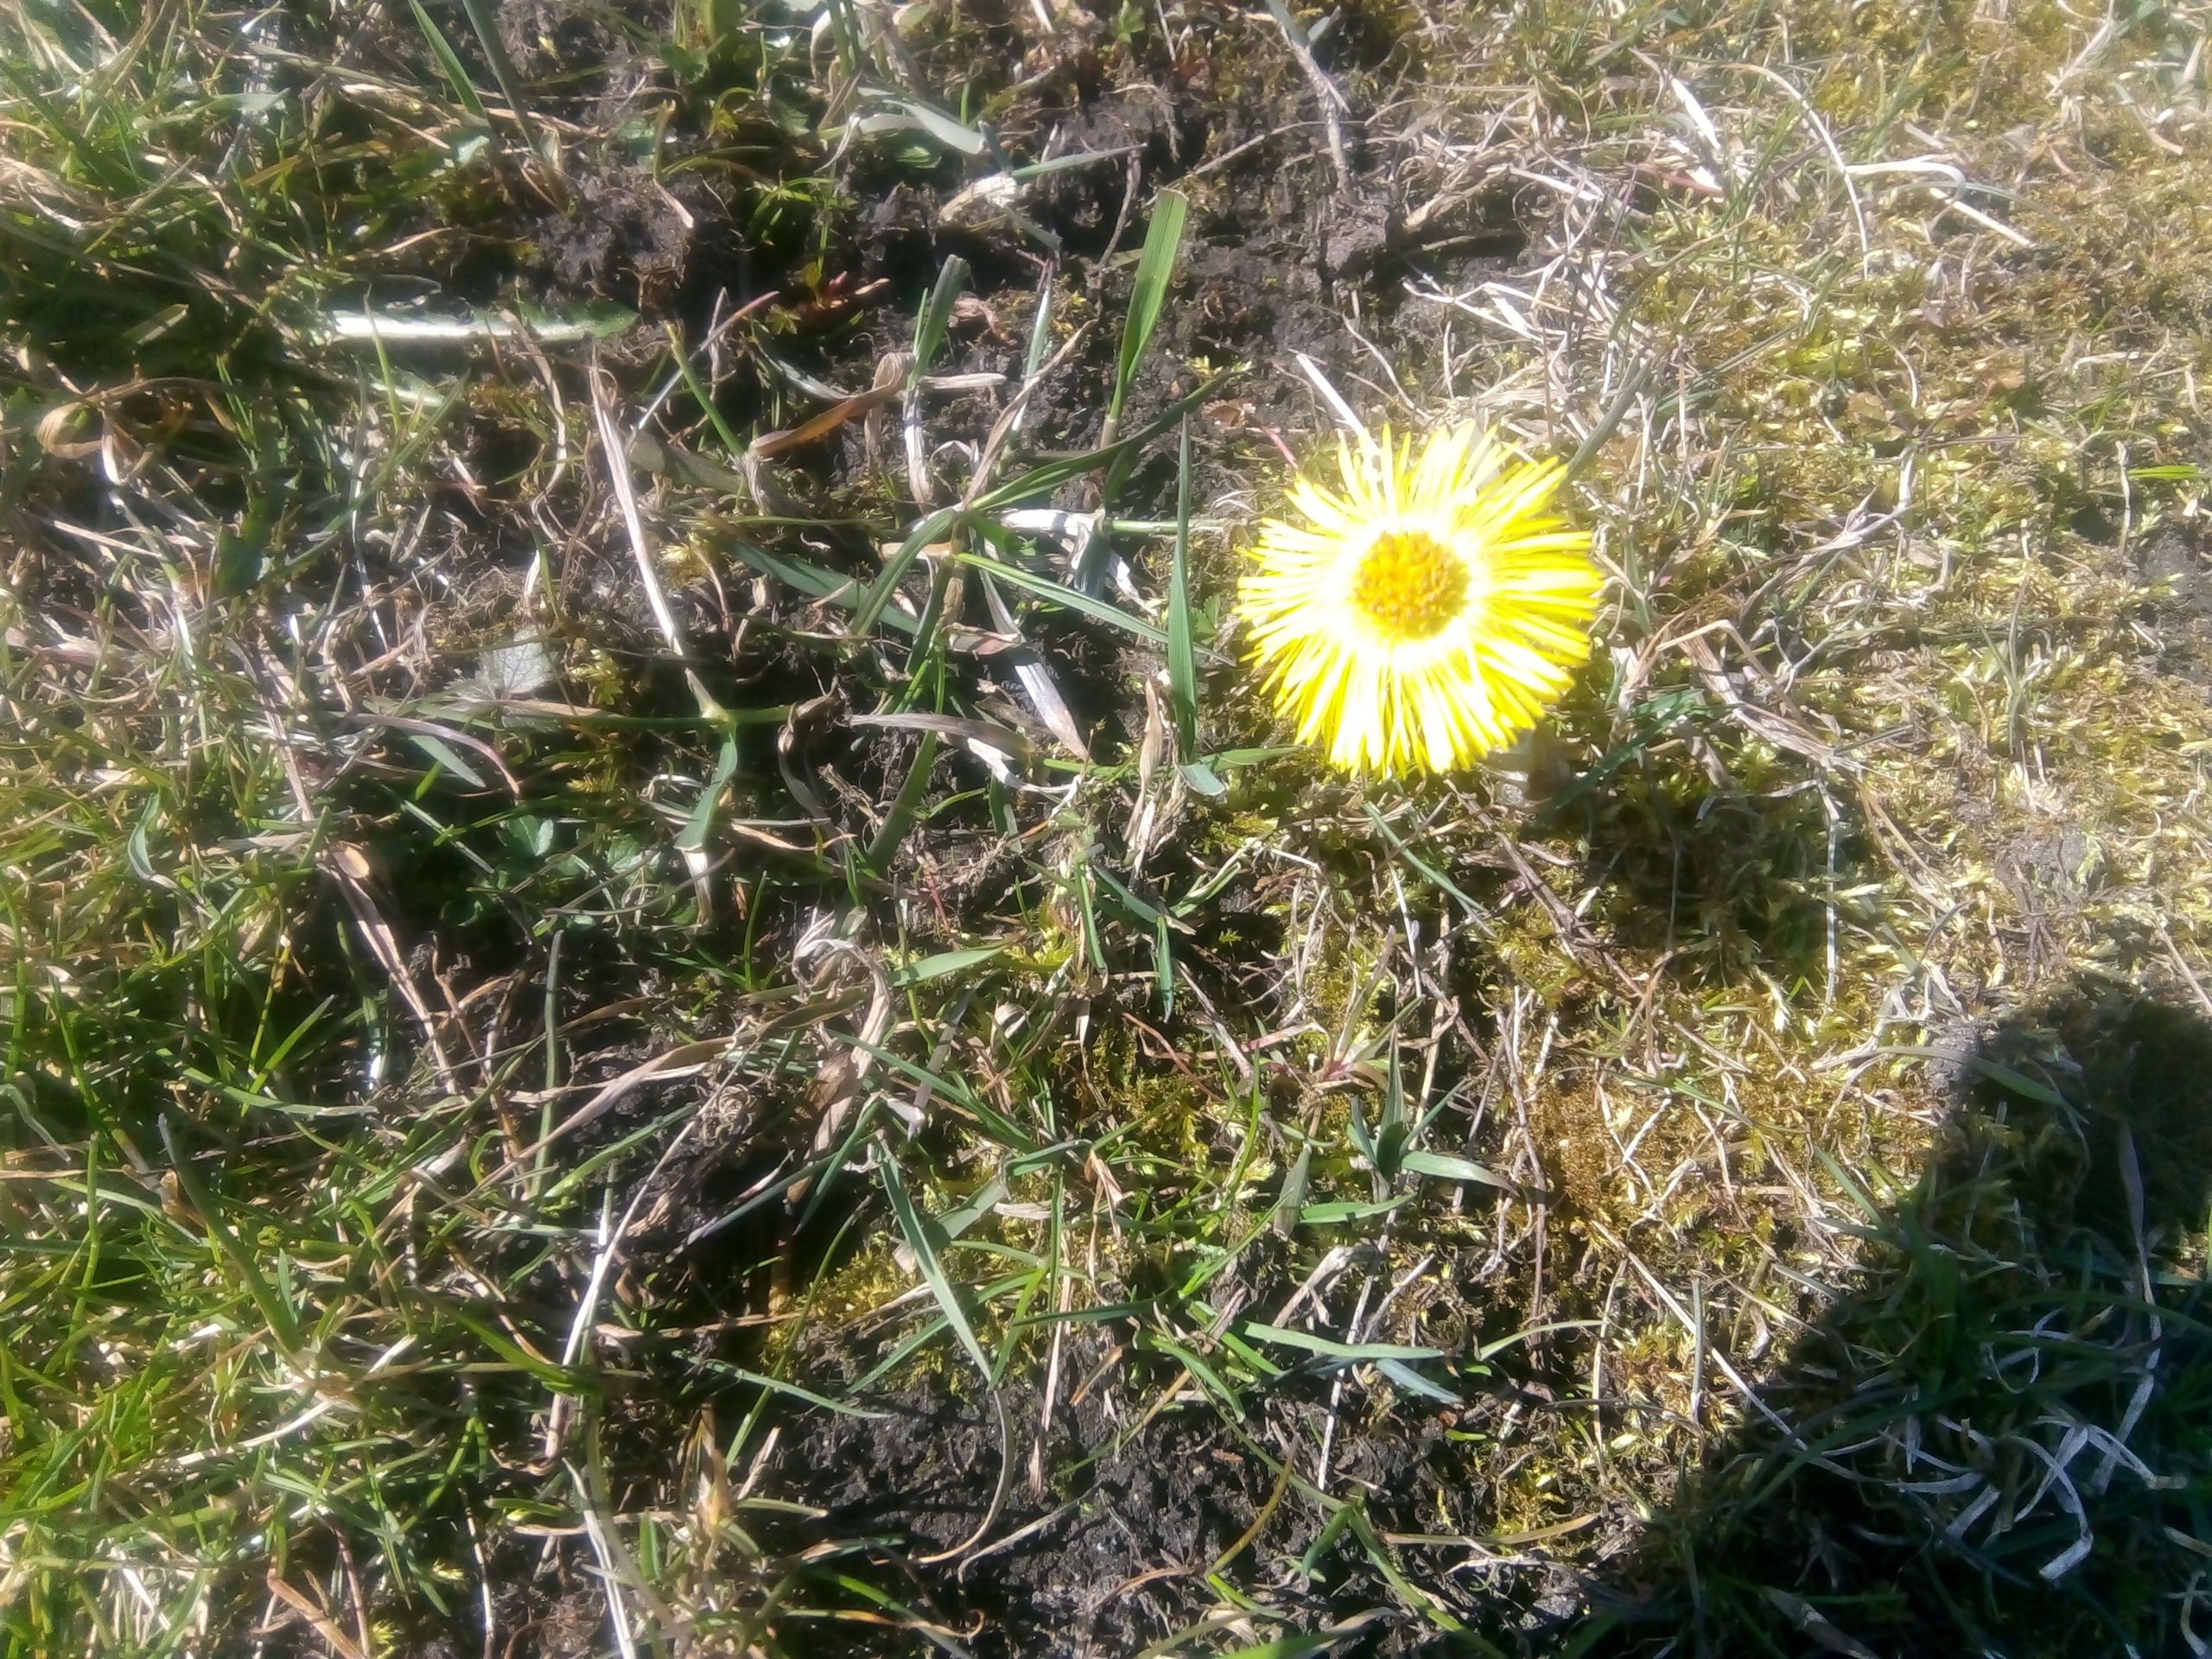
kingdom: Plantae
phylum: Tracheophyta
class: Magnoliopsida
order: Asterales
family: Asteraceae
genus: Tussilago
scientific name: Tussilago farfara
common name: Følfod
